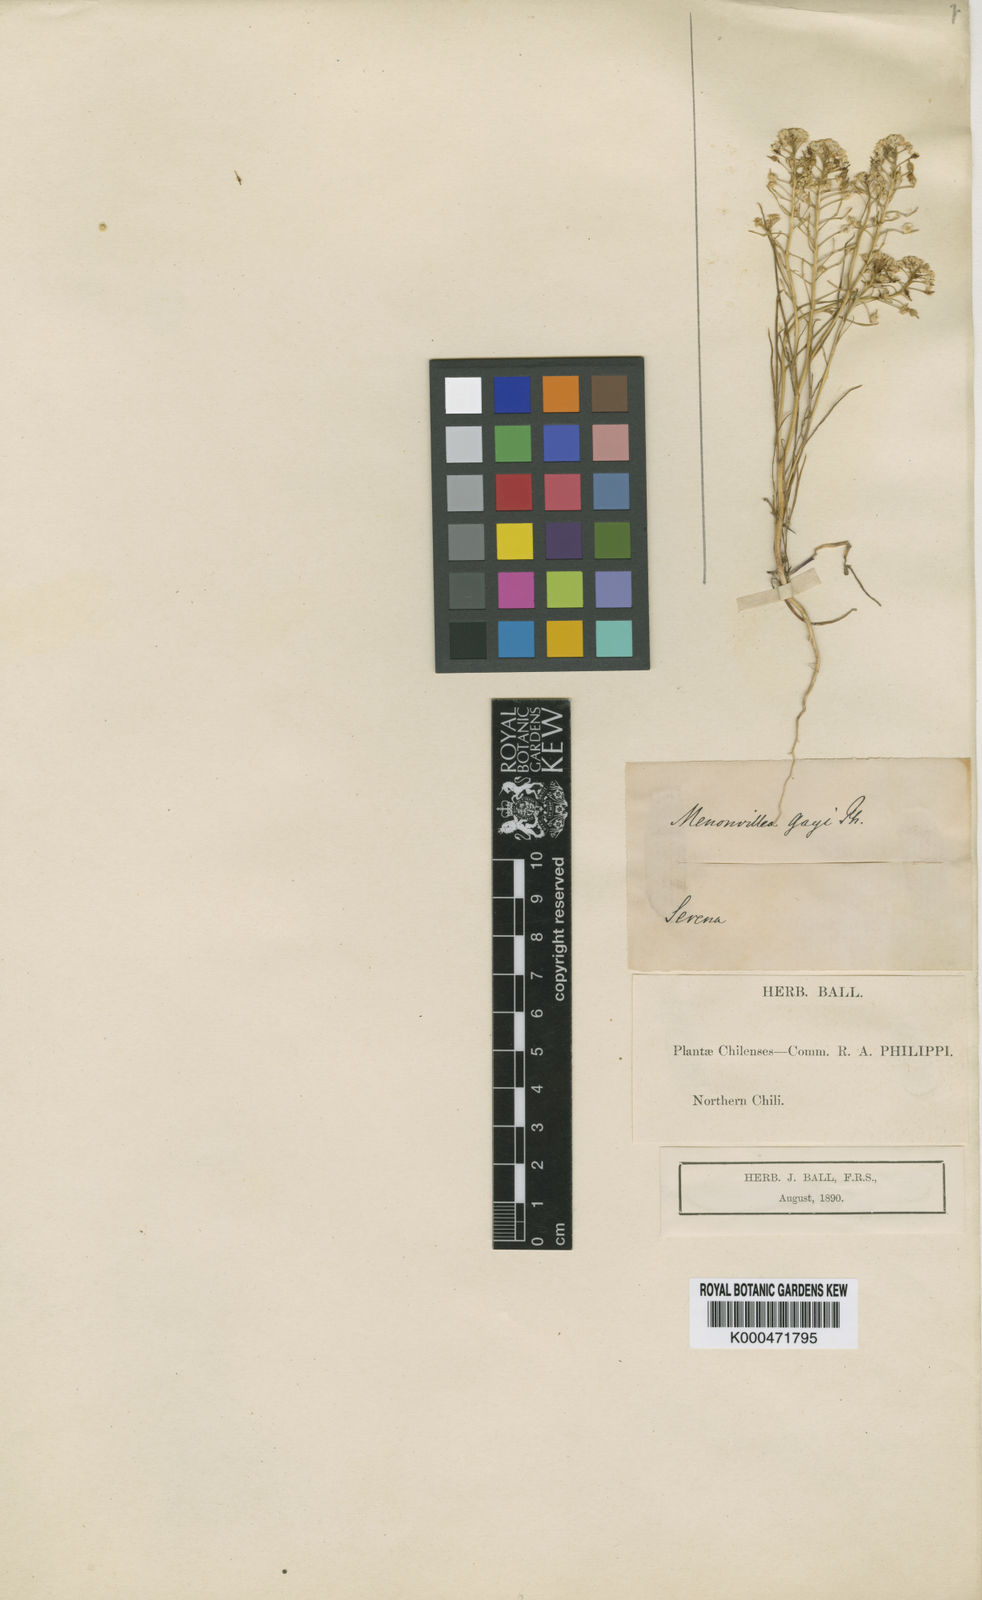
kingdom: Plantae
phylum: Tracheophyta
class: Magnoliopsida
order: Brassicales
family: Brassicaceae
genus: Menonvillea
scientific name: Menonvillea litoralis
